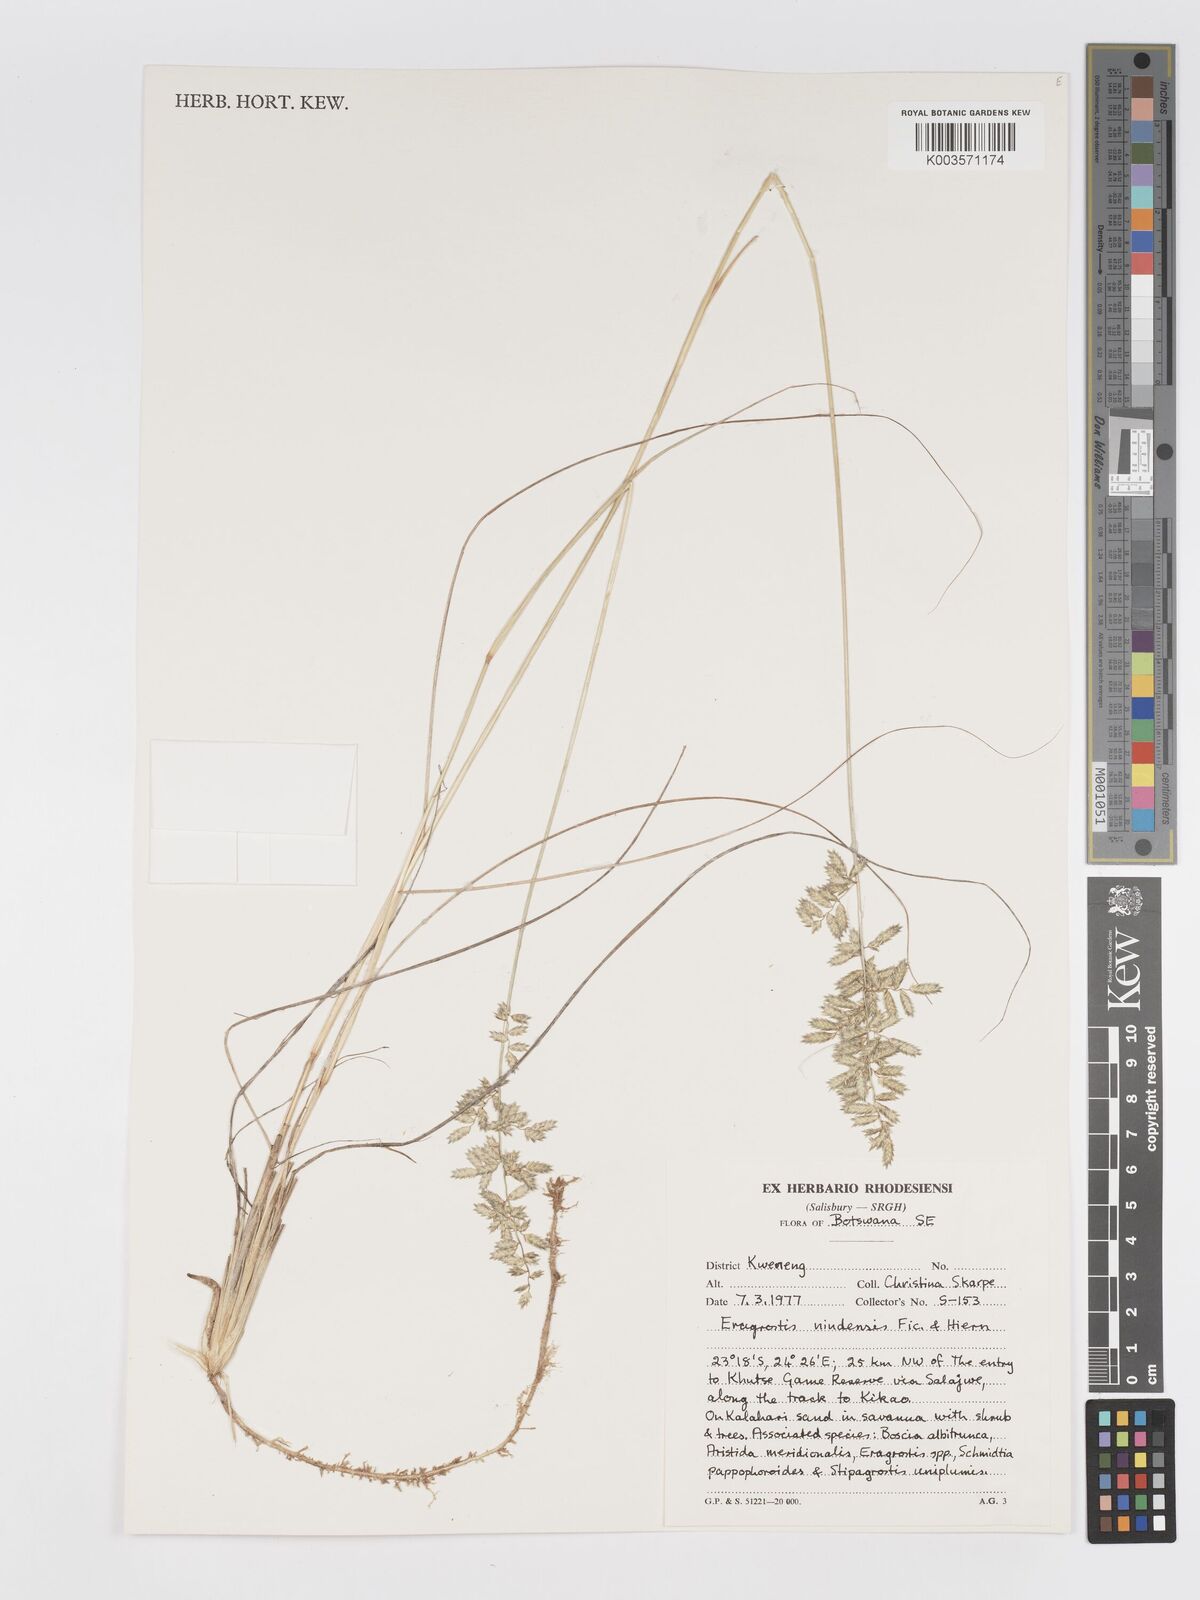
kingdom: Plantae
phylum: Tracheophyta
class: Liliopsida
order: Poales
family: Poaceae
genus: Eragrostis
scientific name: Eragrostis nindensis
